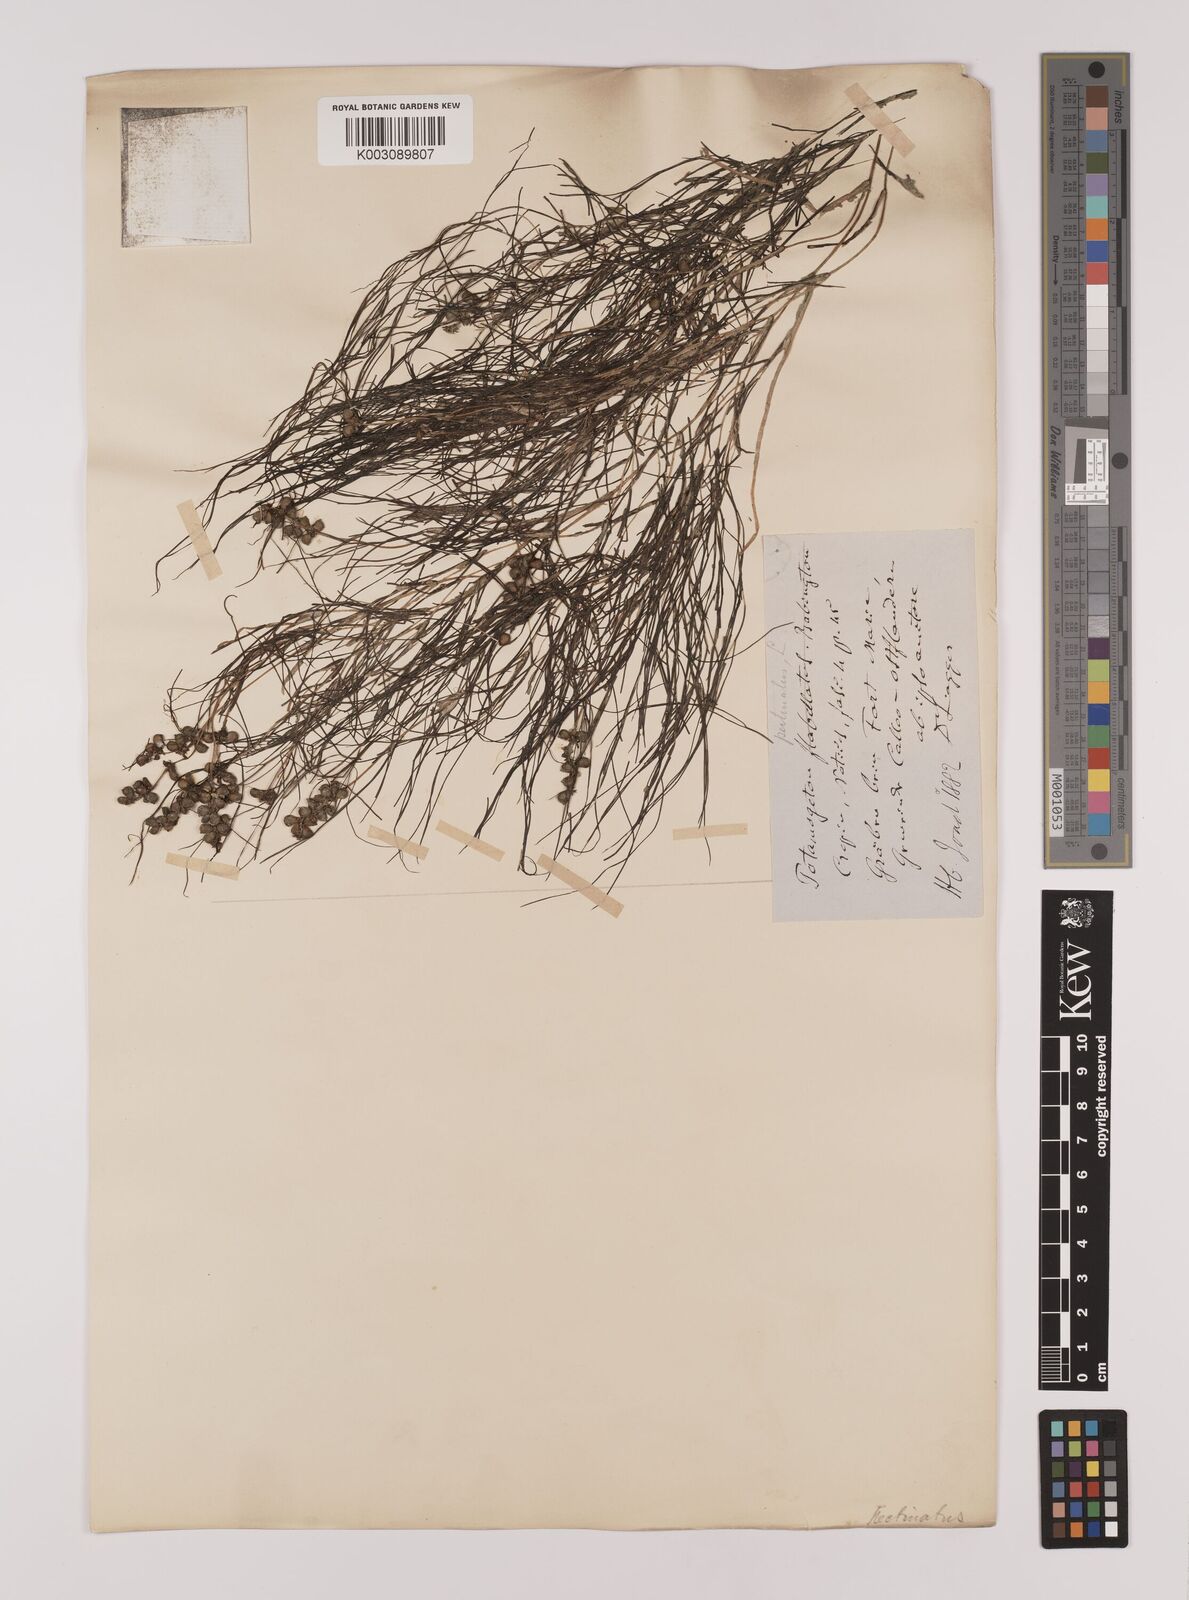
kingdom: Plantae
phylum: Tracheophyta
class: Liliopsida
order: Alismatales
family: Potamogetonaceae
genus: Stuckenia
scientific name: Stuckenia pectinata
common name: Sago pondweed
